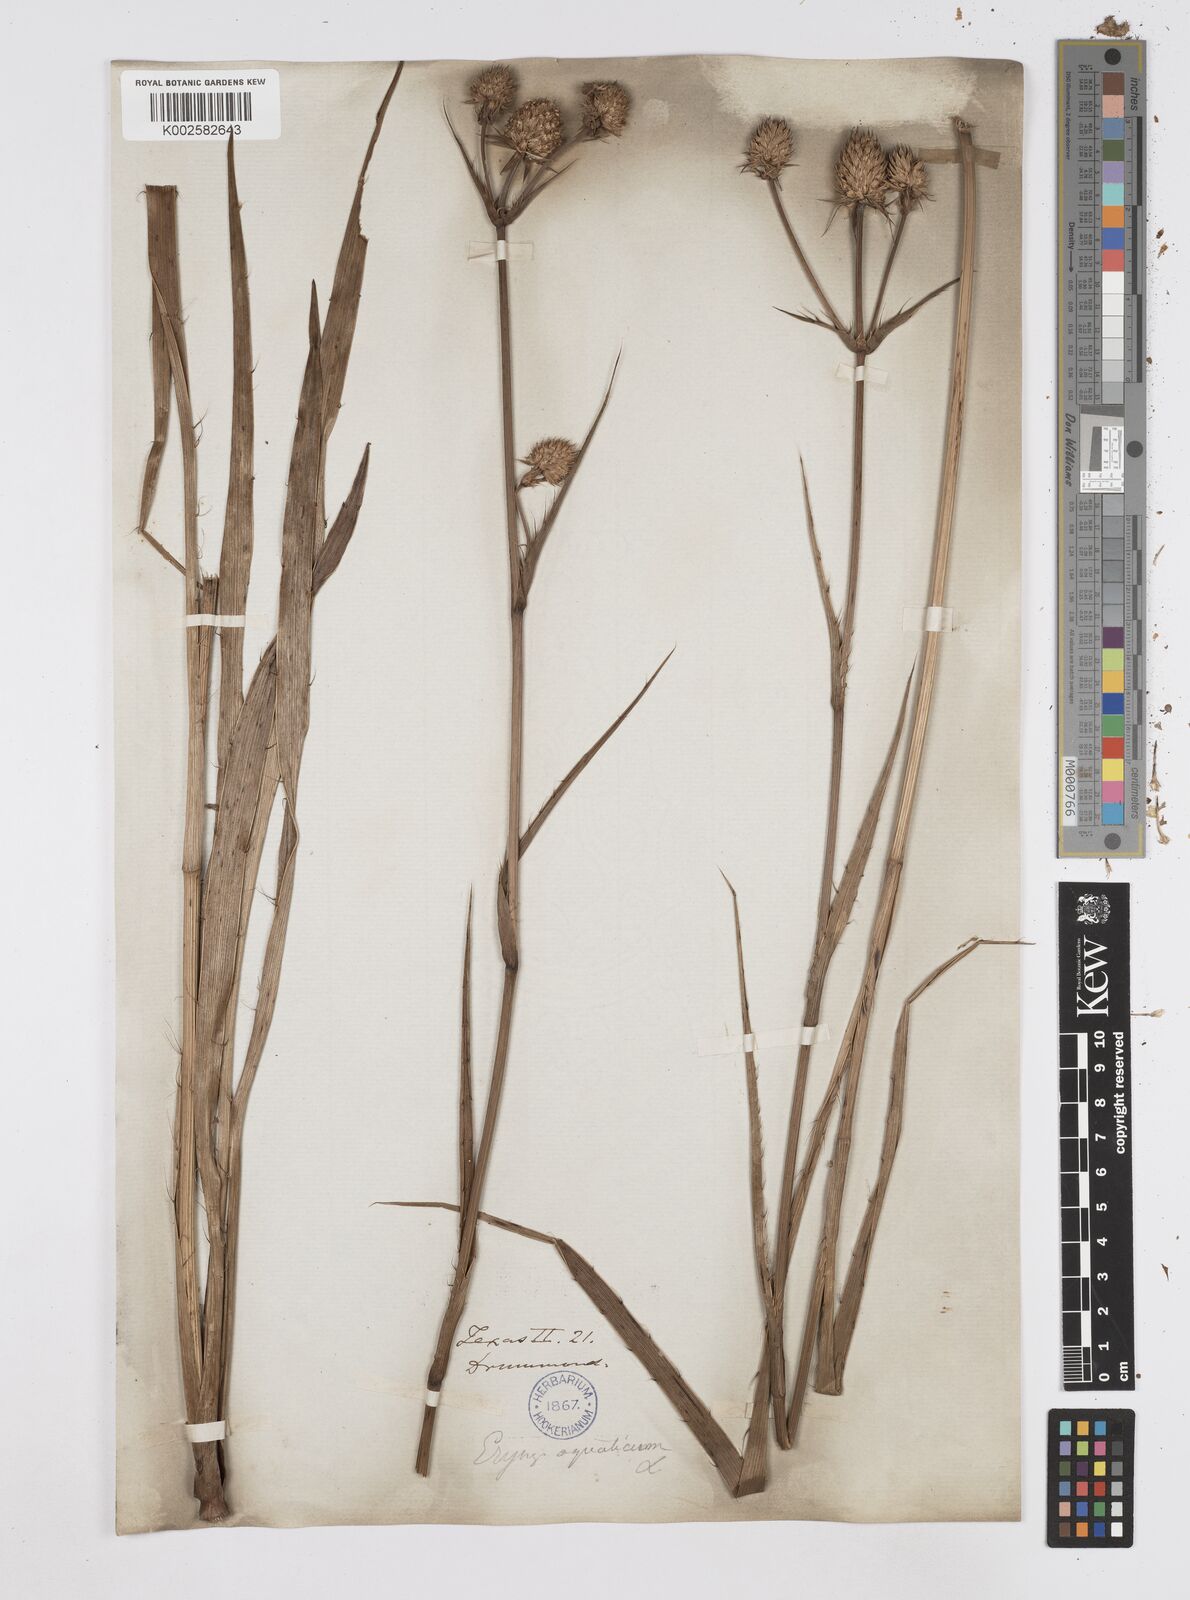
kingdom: Plantae
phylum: Tracheophyta
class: Magnoliopsida
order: Apiales
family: Apiaceae
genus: Eryngium
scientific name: Eryngium yuccifolium
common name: Button eryngo
